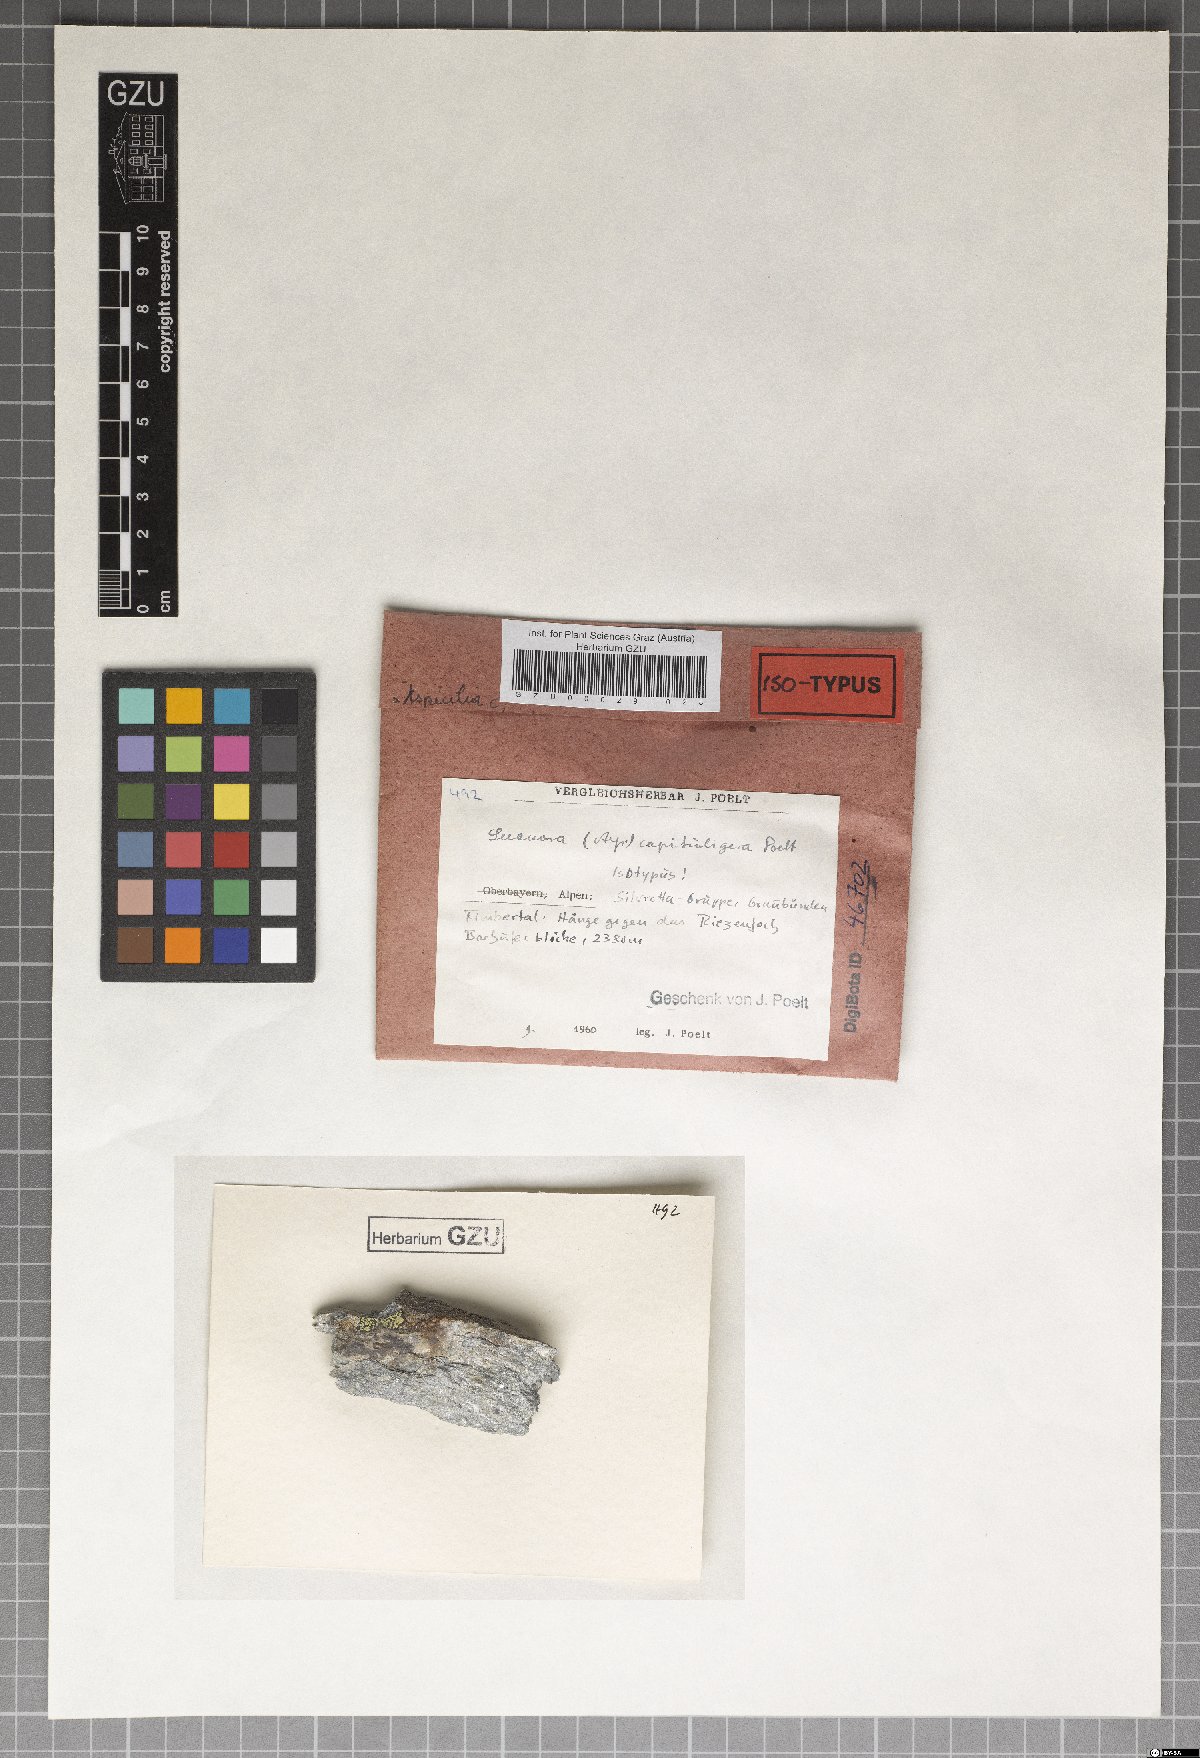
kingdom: Fungi
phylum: Ascomycota
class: Lecanoromycetes
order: Lecanorales
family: Lecanoraceae
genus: Lecanora
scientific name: Lecanora
